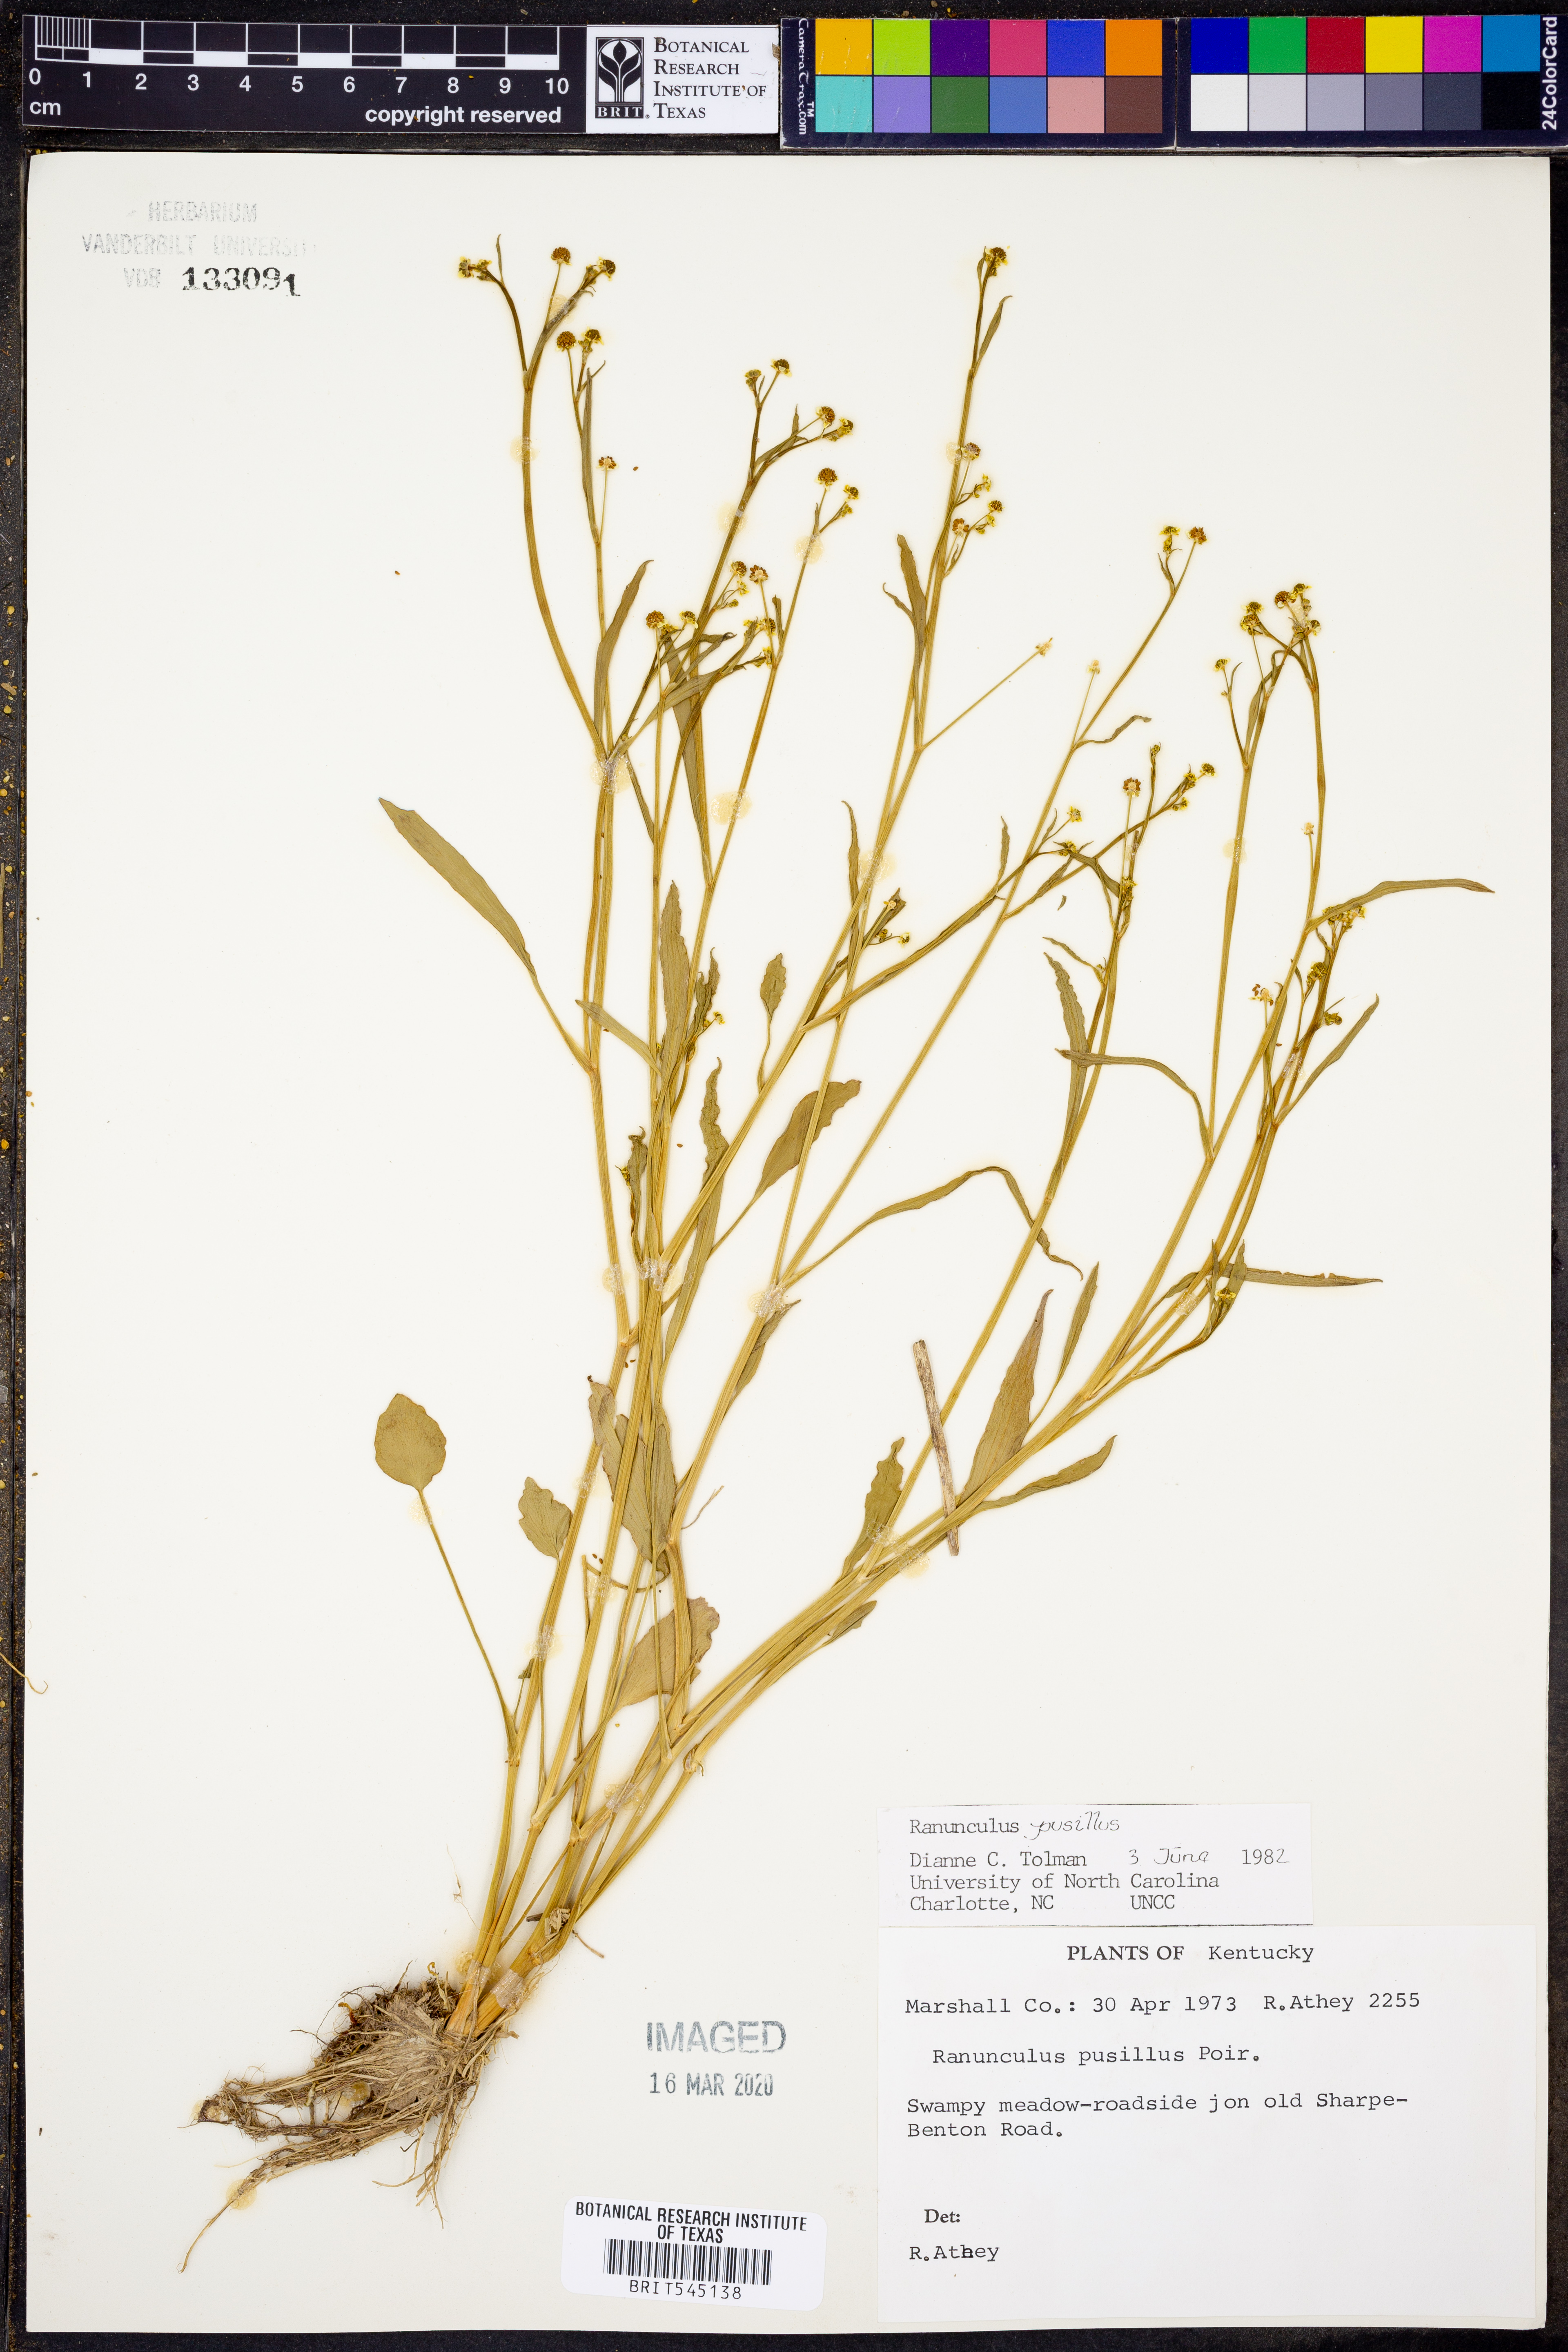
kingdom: Plantae
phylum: Tracheophyta
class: Magnoliopsida
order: Ranunculales
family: Ranunculaceae
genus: Ranunculus
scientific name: Ranunculus pusillus
